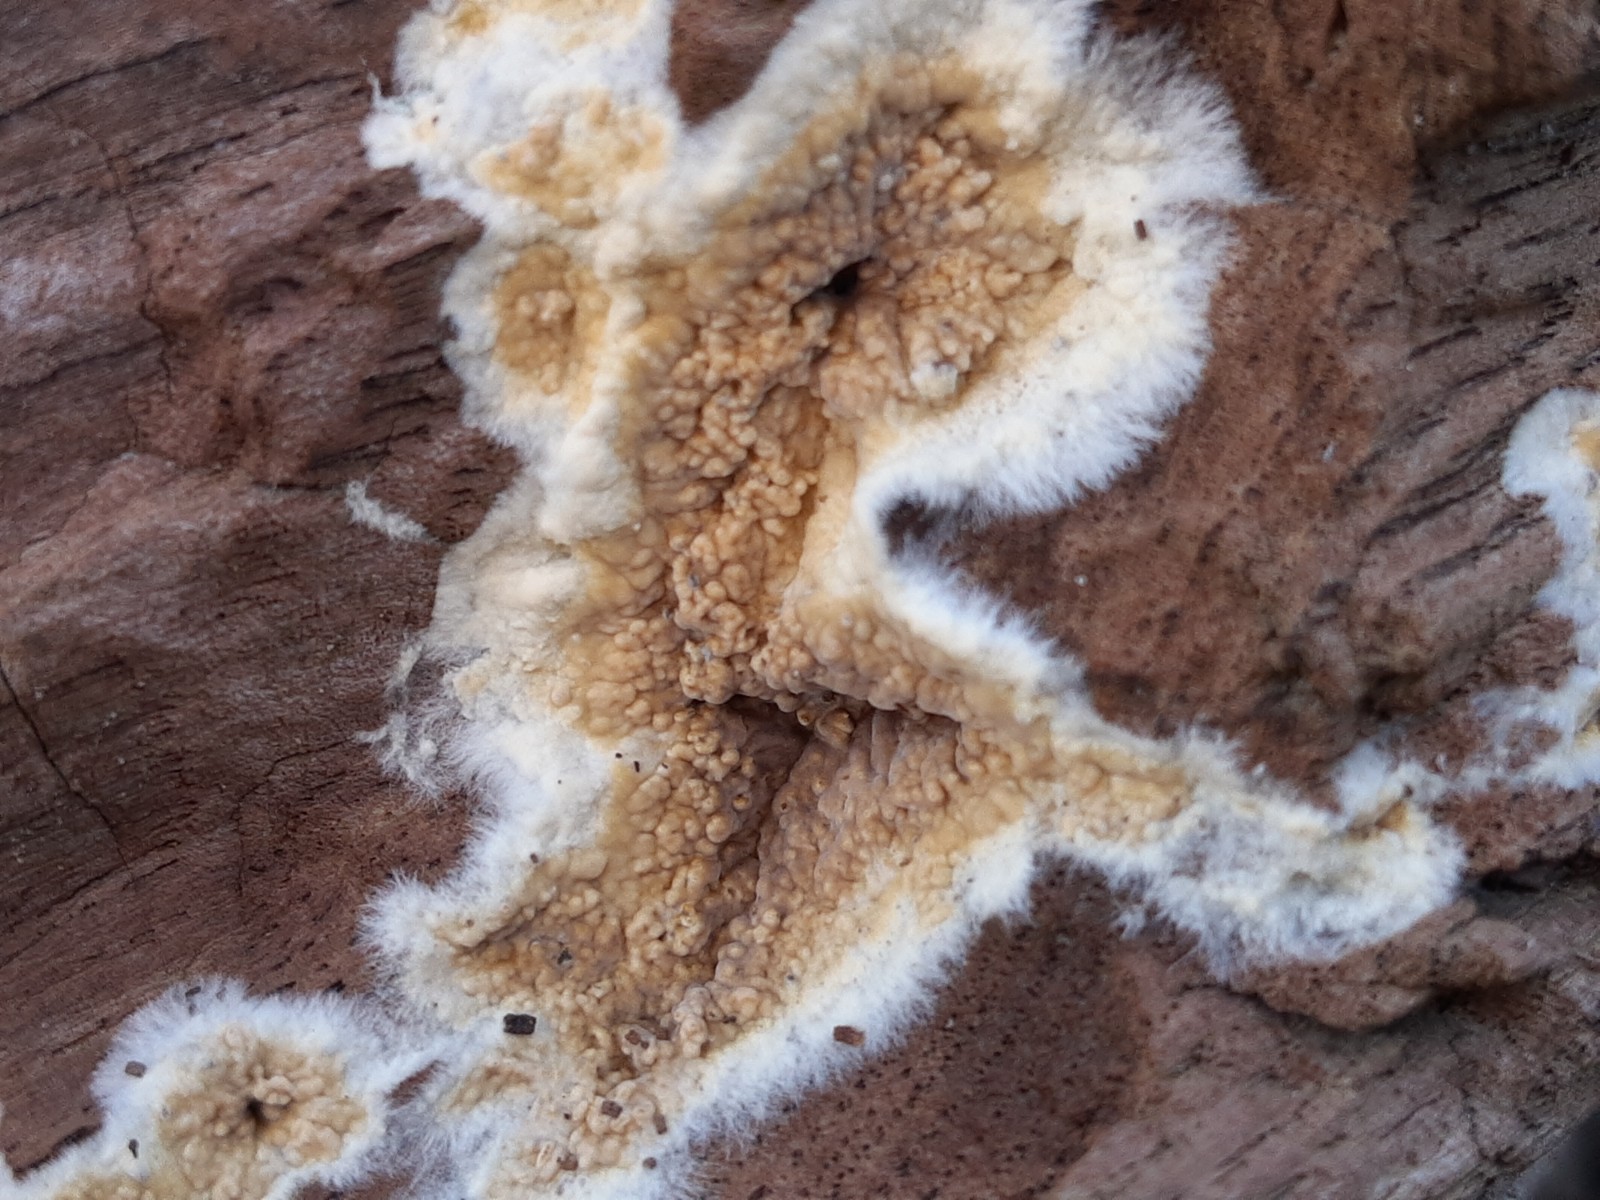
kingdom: Fungi
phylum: Basidiomycota
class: Agaricomycetes
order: Boletales
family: Coniophoraceae
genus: Coniophora
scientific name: Coniophora puteana
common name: gul tømmersvamp
